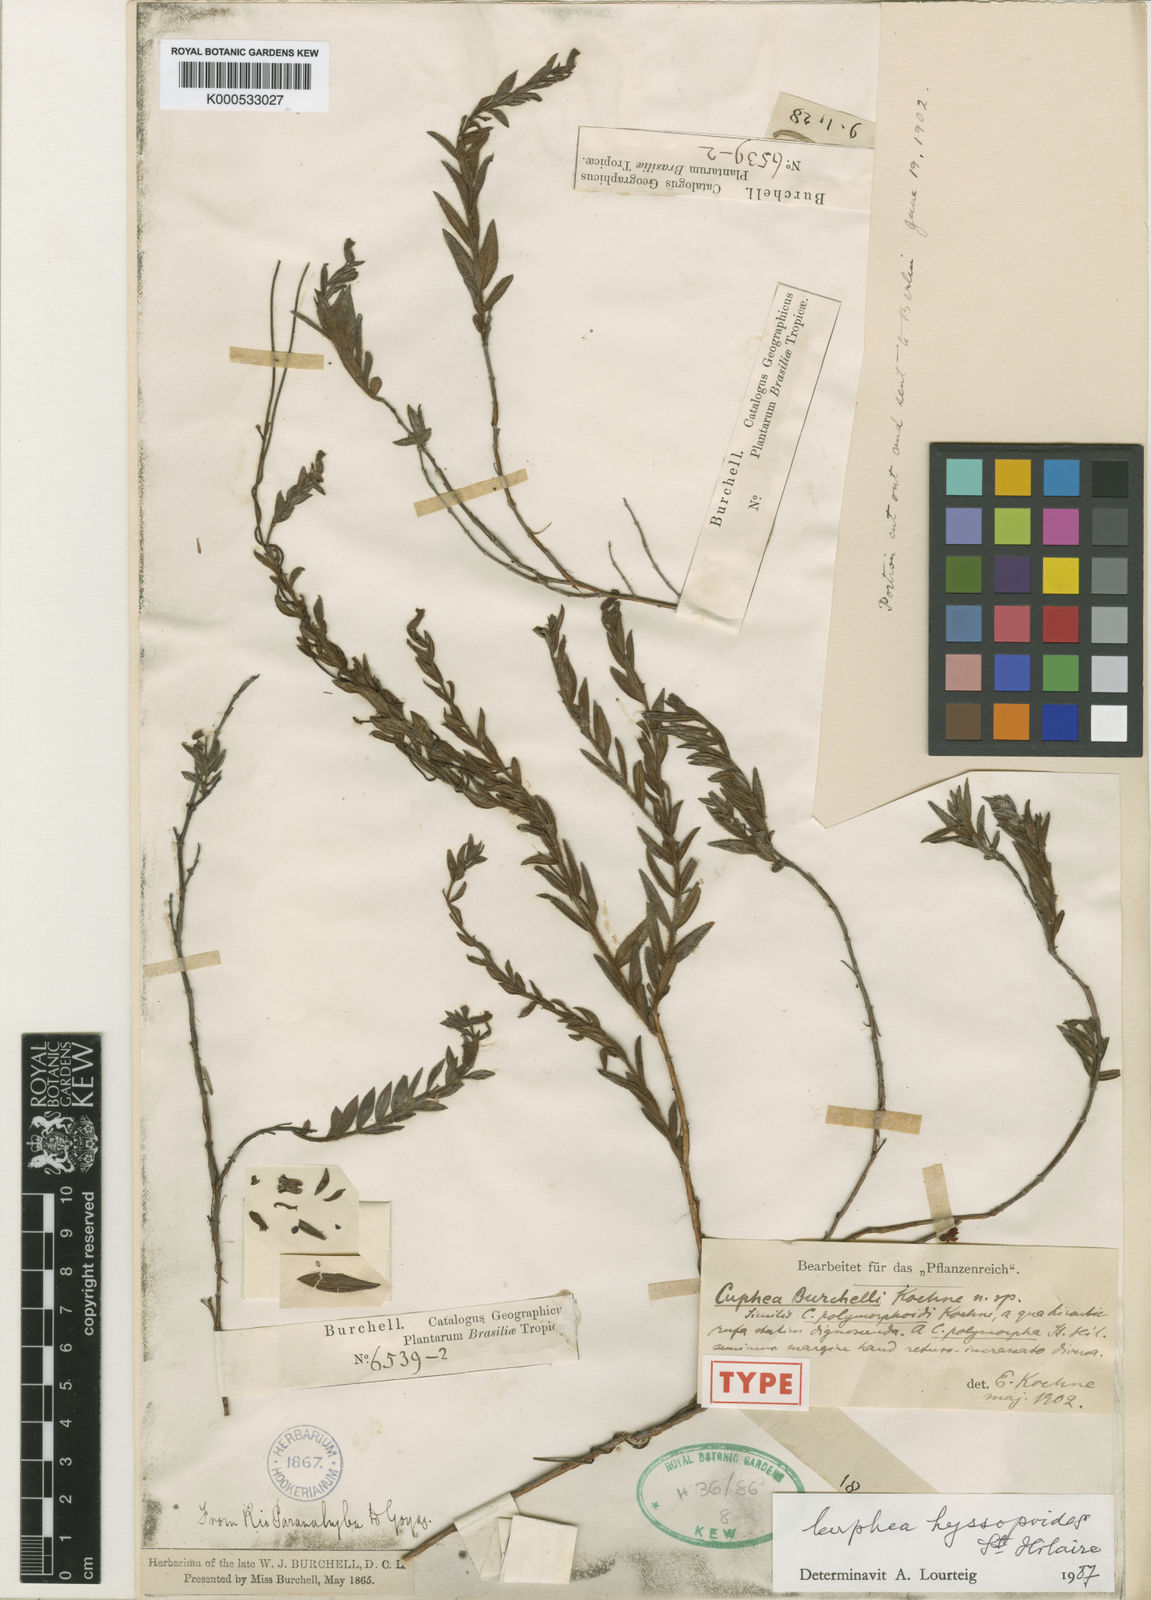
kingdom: Plantae
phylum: Tracheophyta
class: Magnoliopsida
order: Myrtales
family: Lythraceae
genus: Cuphea
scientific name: Cuphea ferruginea
